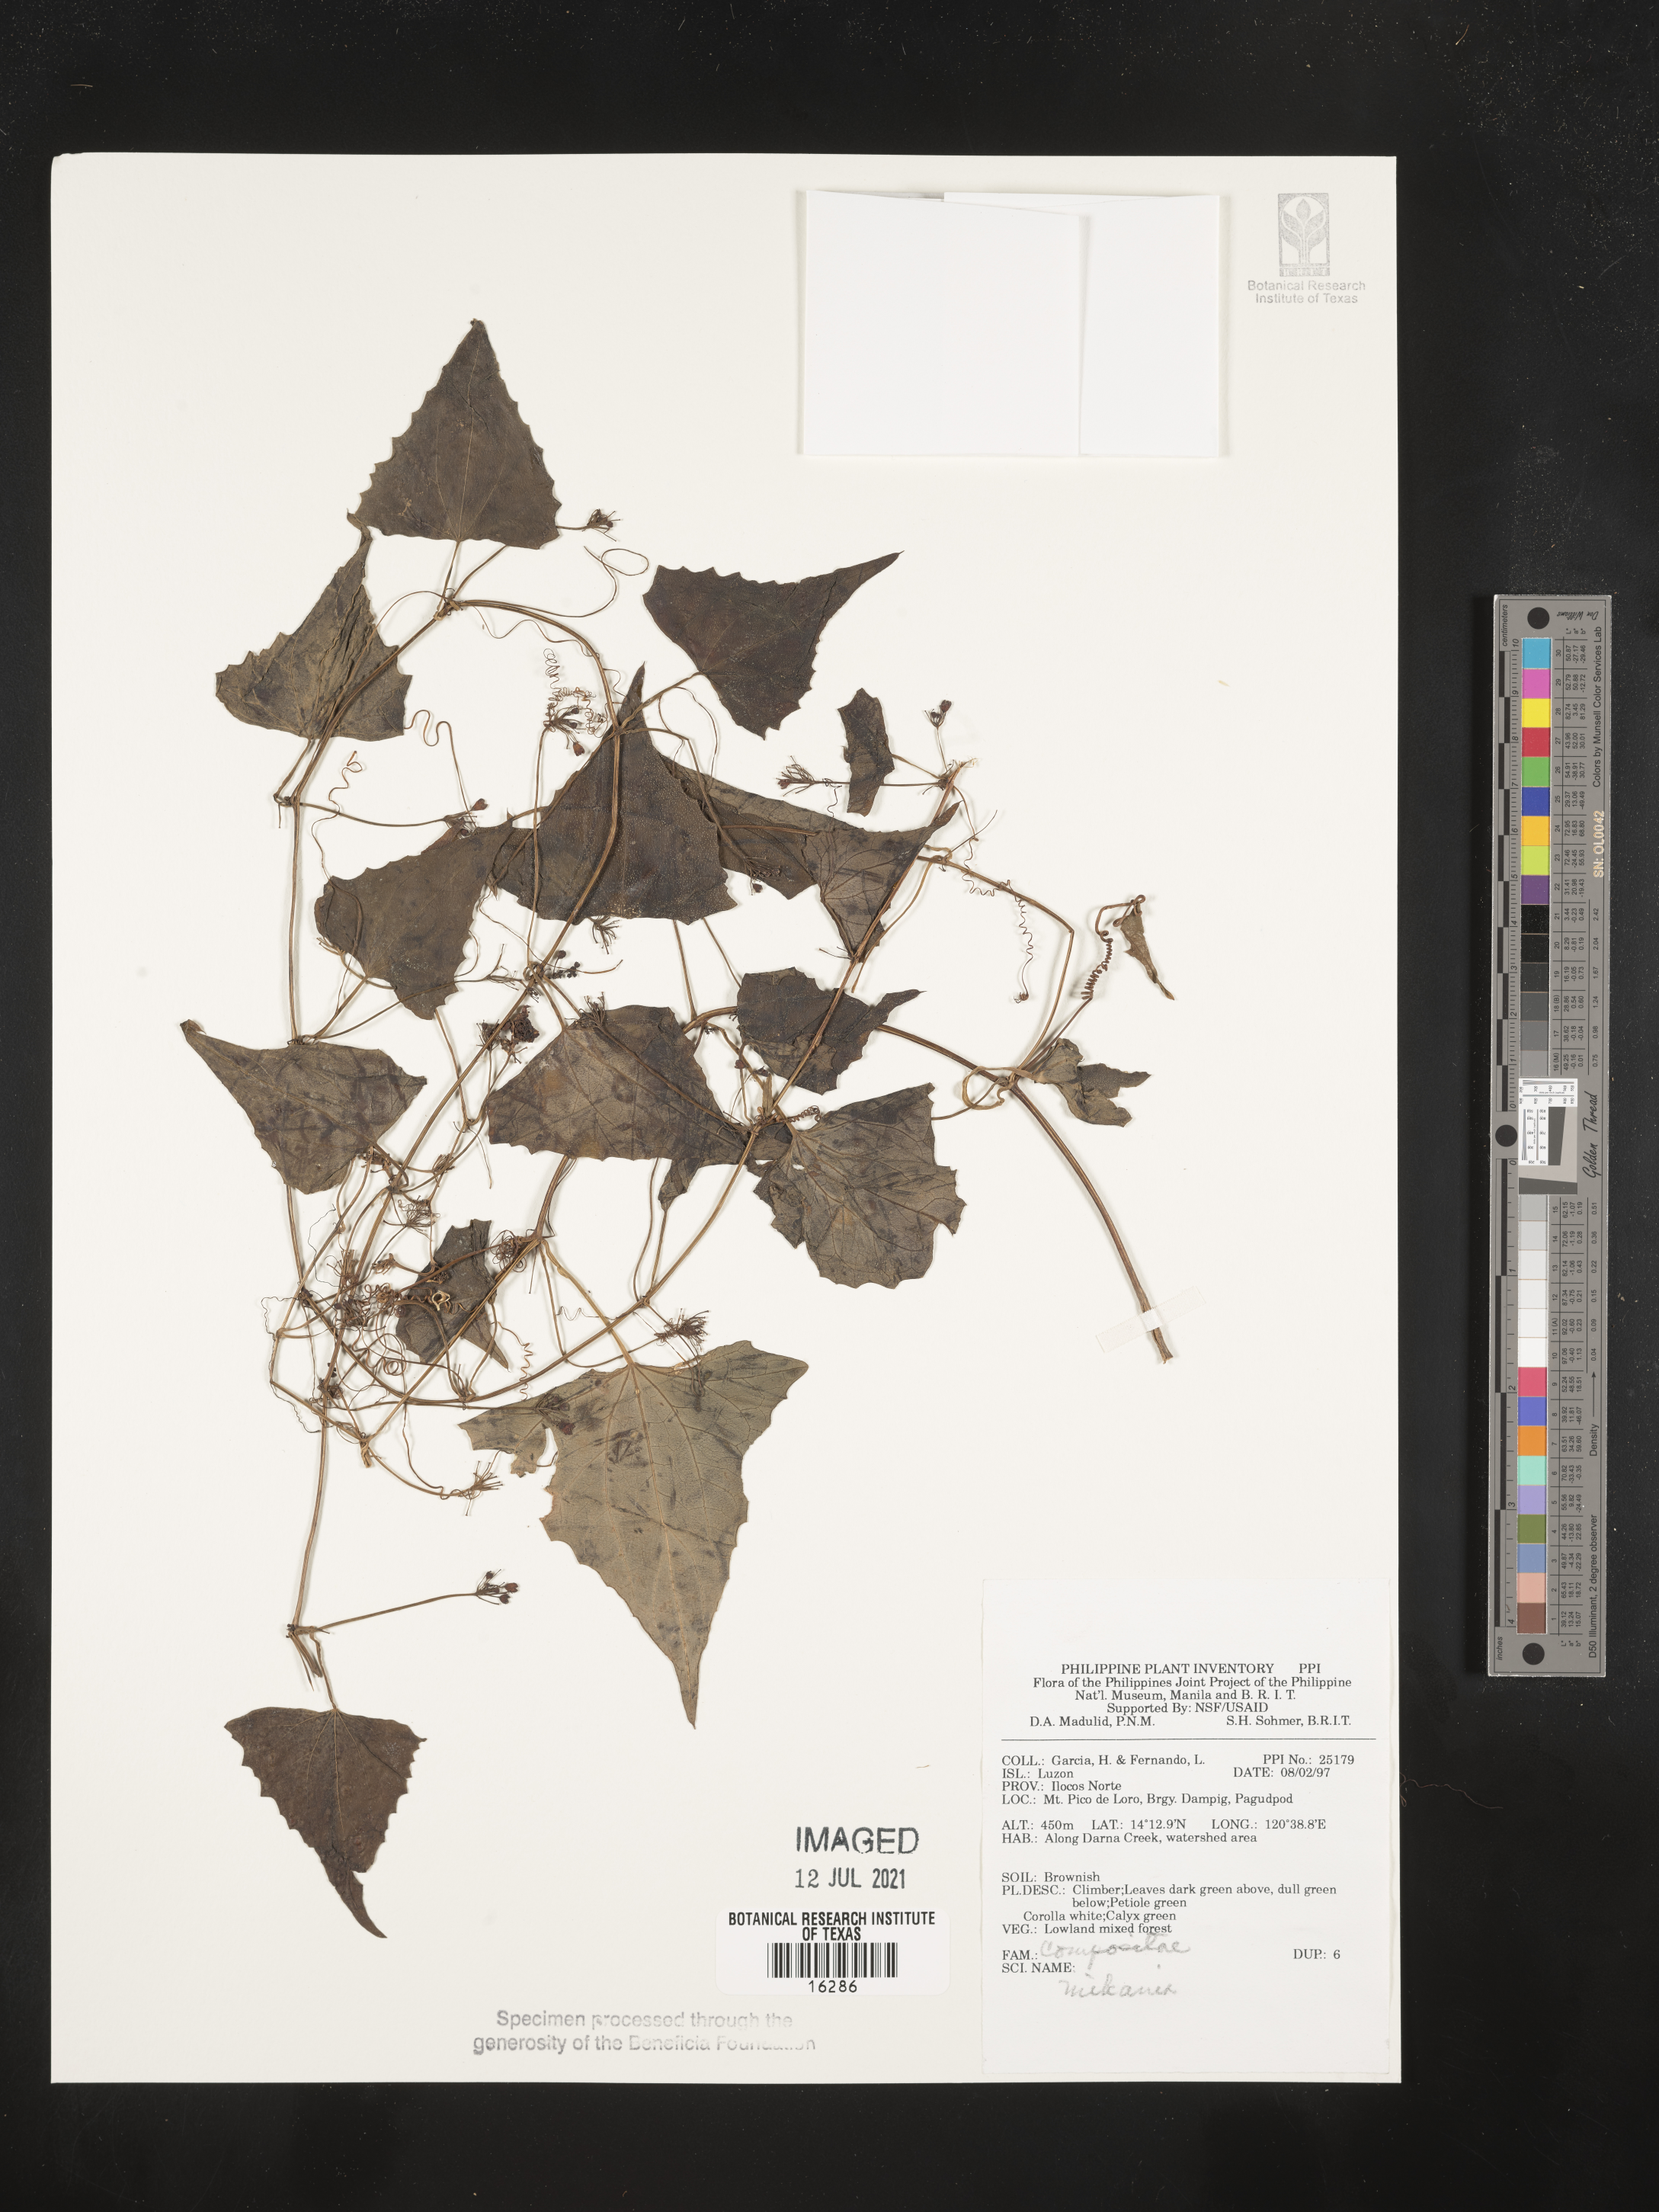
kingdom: Plantae
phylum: Tracheophyta
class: Magnoliopsida
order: Asterales
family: Asteraceae
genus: Mikania
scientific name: Mikania
